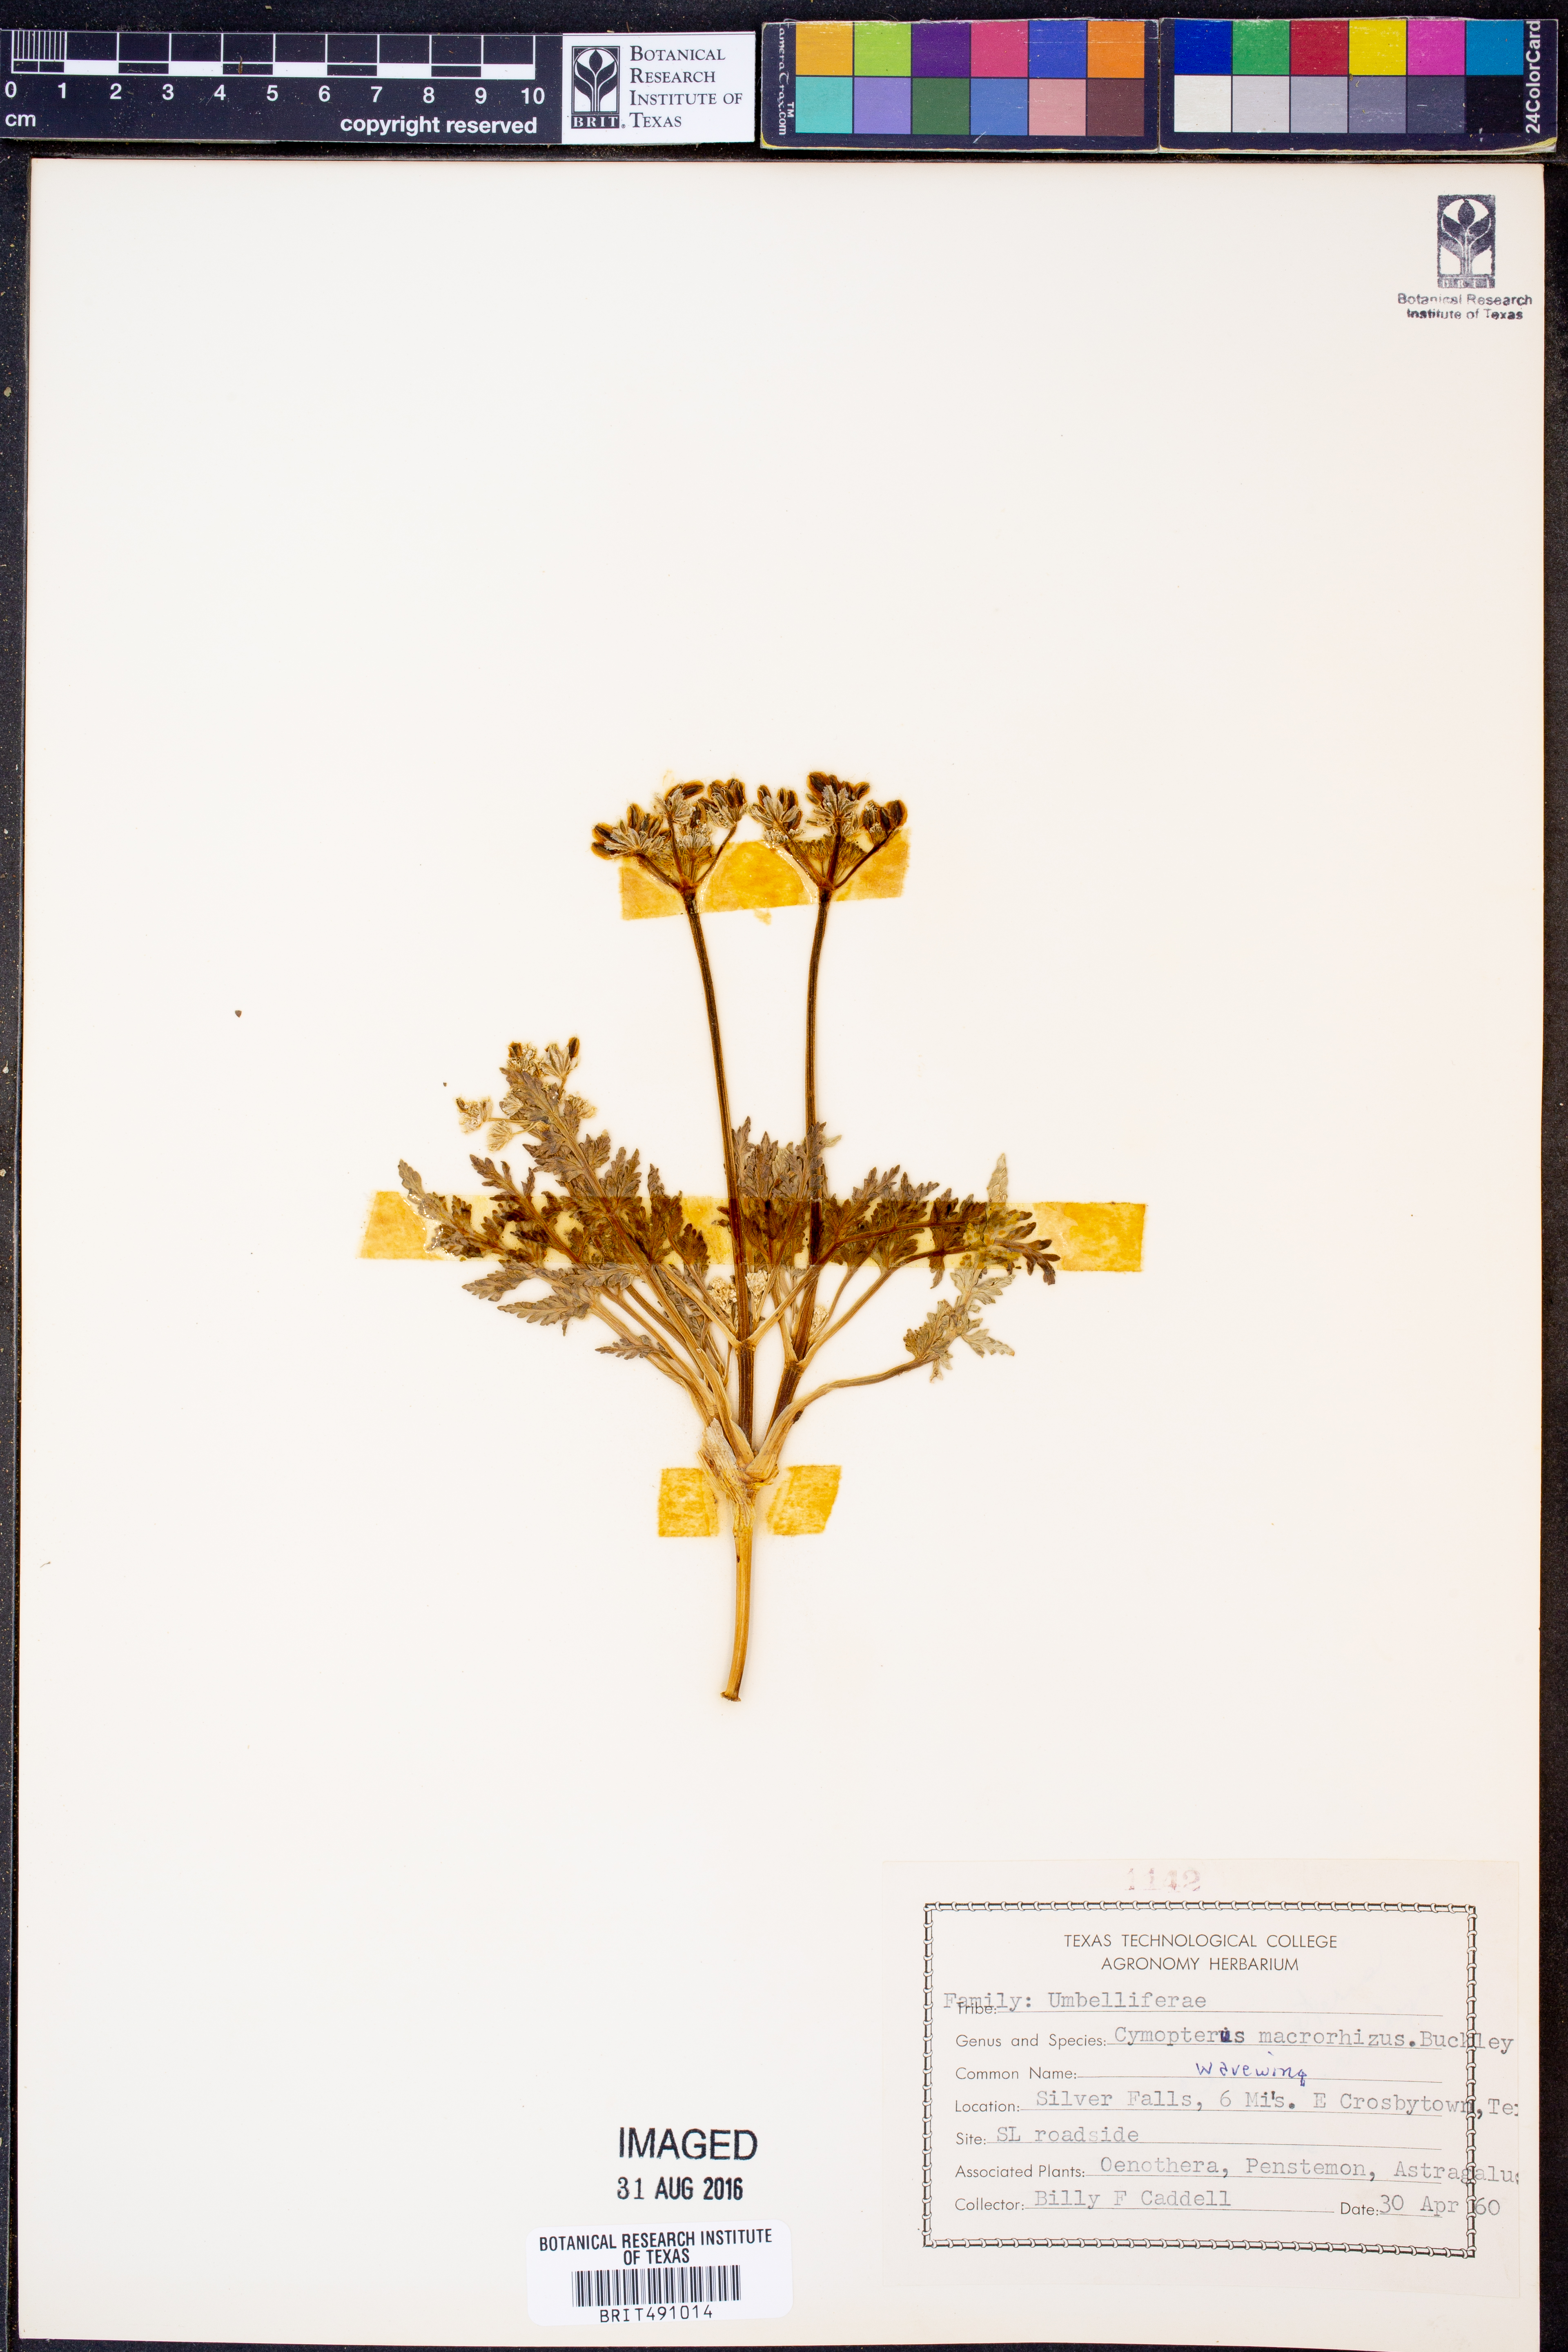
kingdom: Plantae
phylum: Tracheophyta
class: Magnoliopsida
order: Apiales
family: Apiaceae
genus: Vesper
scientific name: Vesper macrorhizus
